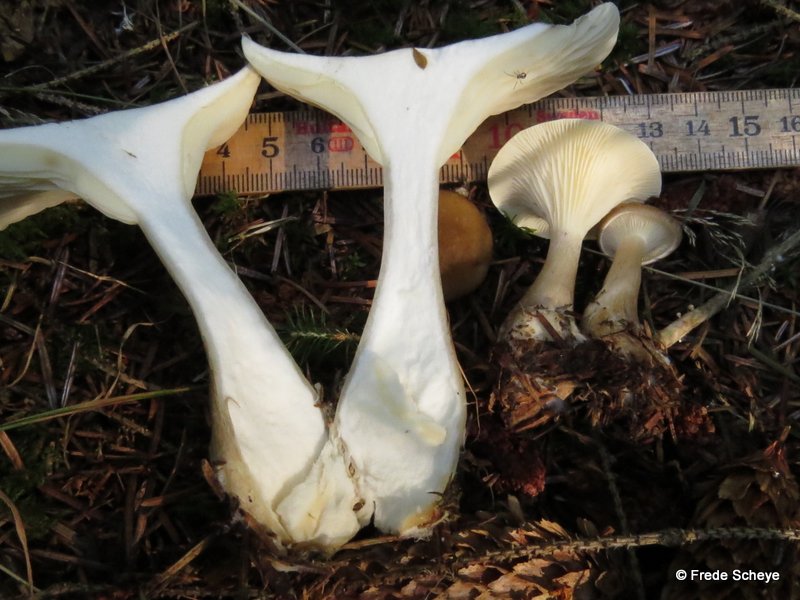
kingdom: Fungi
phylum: Basidiomycota
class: Agaricomycetes
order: Agaricales
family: Hygrophoraceae
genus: Ampulloclitocybe
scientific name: Ampulloclitocybe clavipes
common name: køllefod
